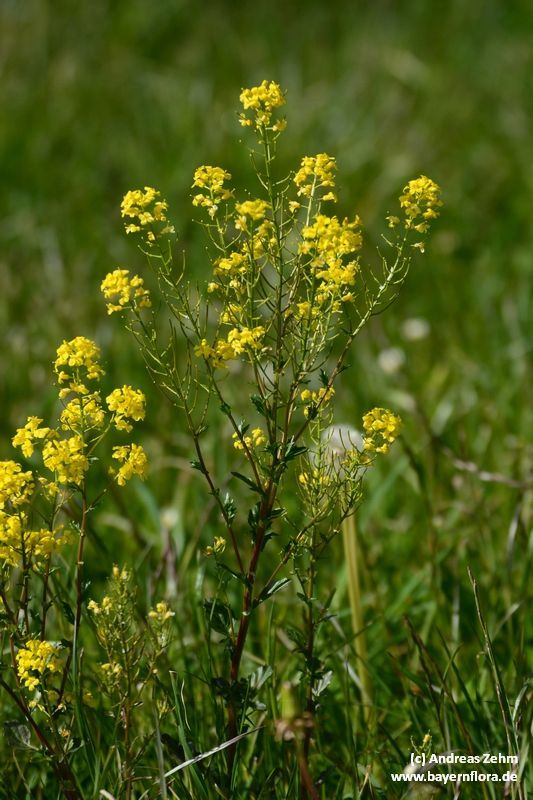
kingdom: Plantae
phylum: Tracheophyta
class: Magnoliopsida
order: Brassicales
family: Brassicaceae
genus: Barbarea
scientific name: Barbarea vulgaris
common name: Cressy-greens
